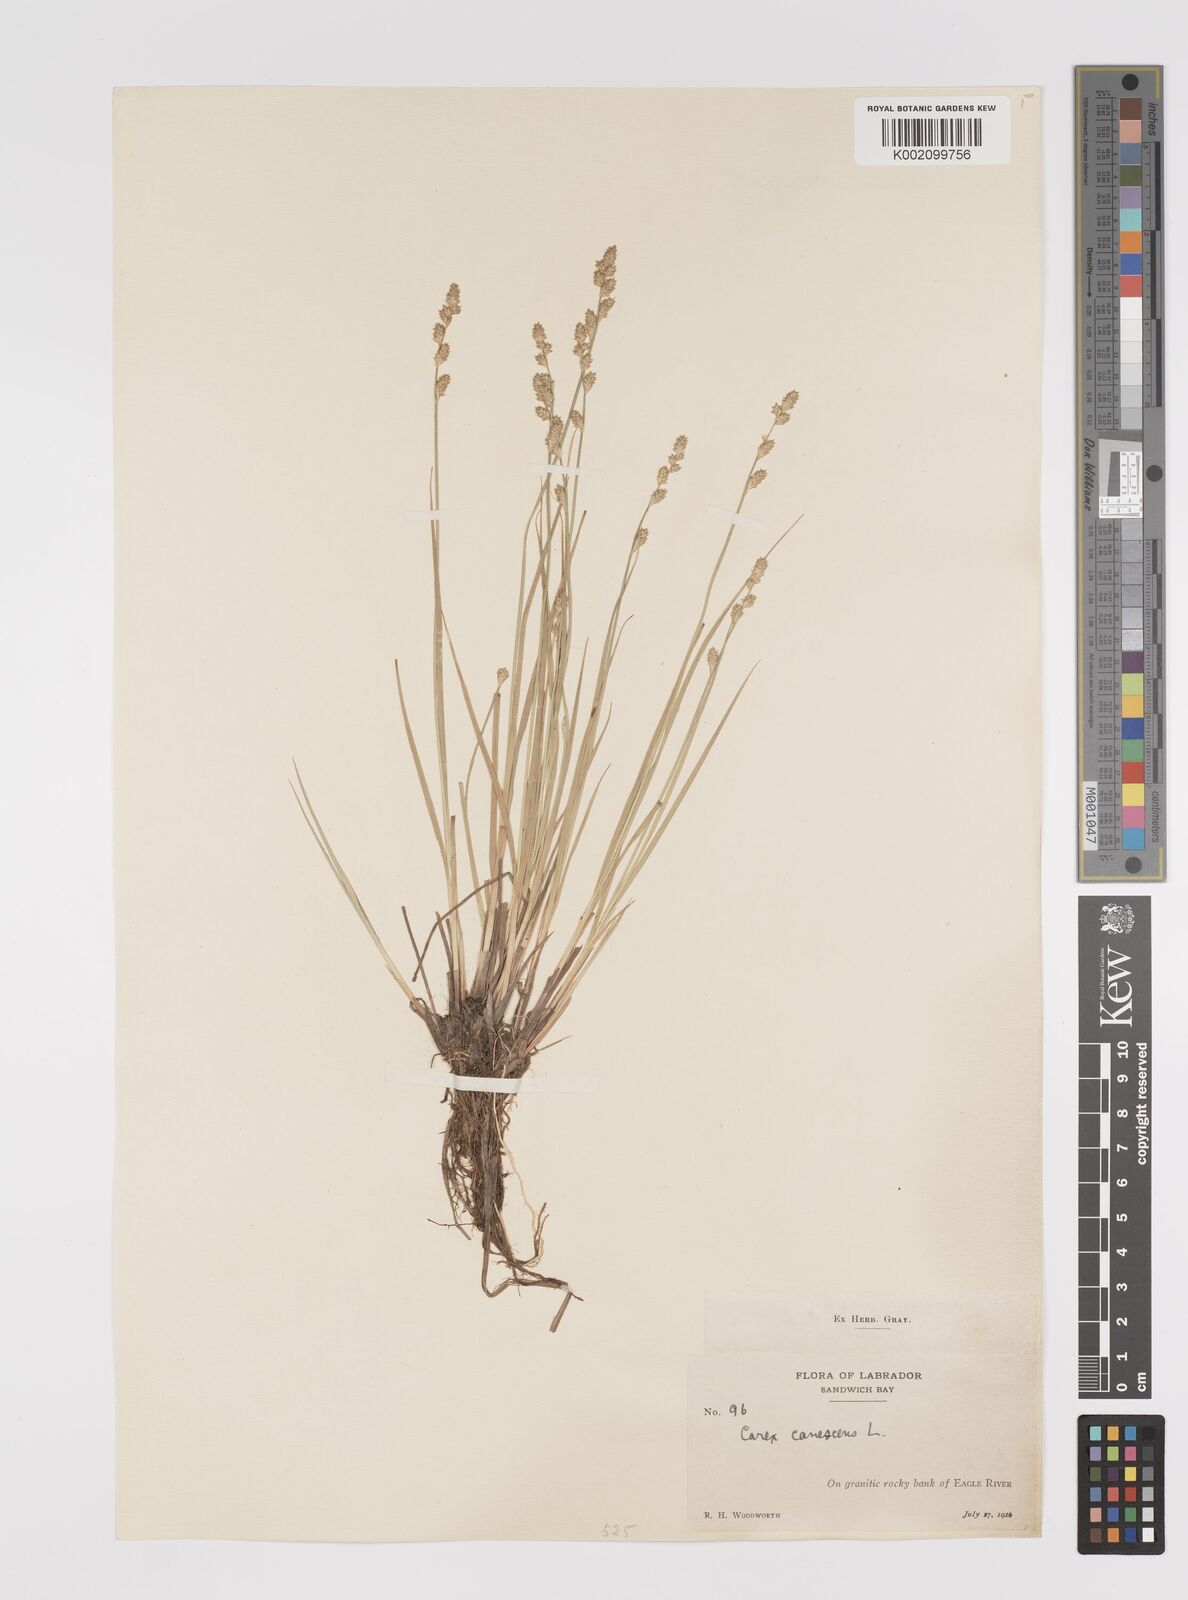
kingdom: Plantae
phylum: Tracheophyta
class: Liliopsida
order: Poales
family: Cyperaceae
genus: Carex
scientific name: Carex curta
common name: White sedge
